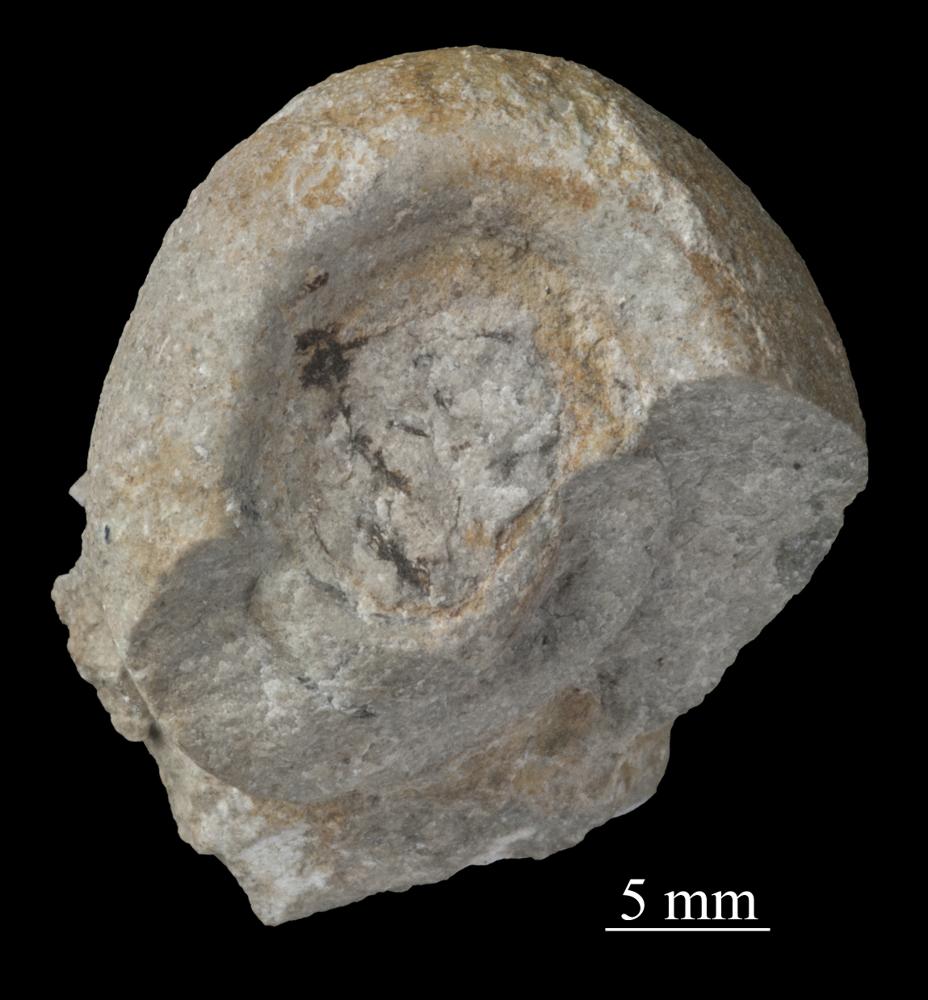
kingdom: Animalia
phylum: Mollusca
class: Gastropoda
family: Bellerophontidae
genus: Bellerophon
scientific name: Bellerophon
